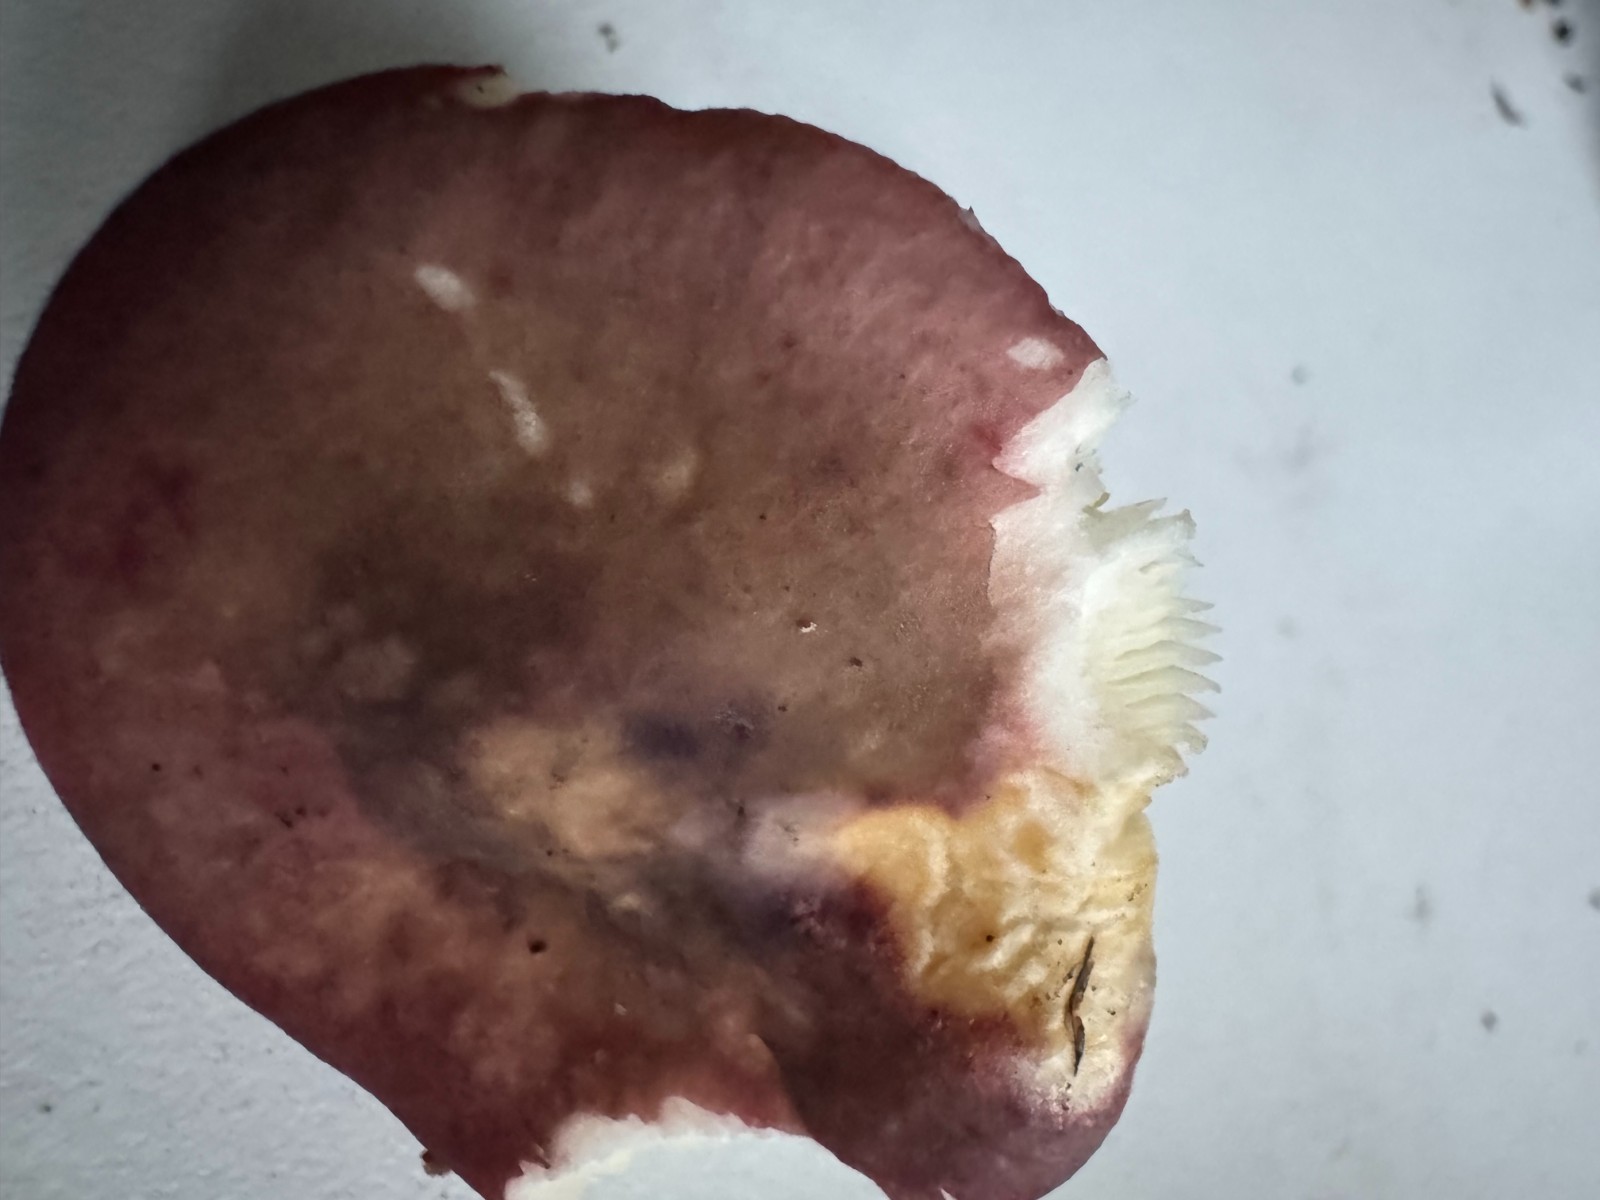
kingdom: Fungi
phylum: Basidiomycota
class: Agaricomycetes
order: Russulales
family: Russulaceae
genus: Russula
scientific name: Russula
